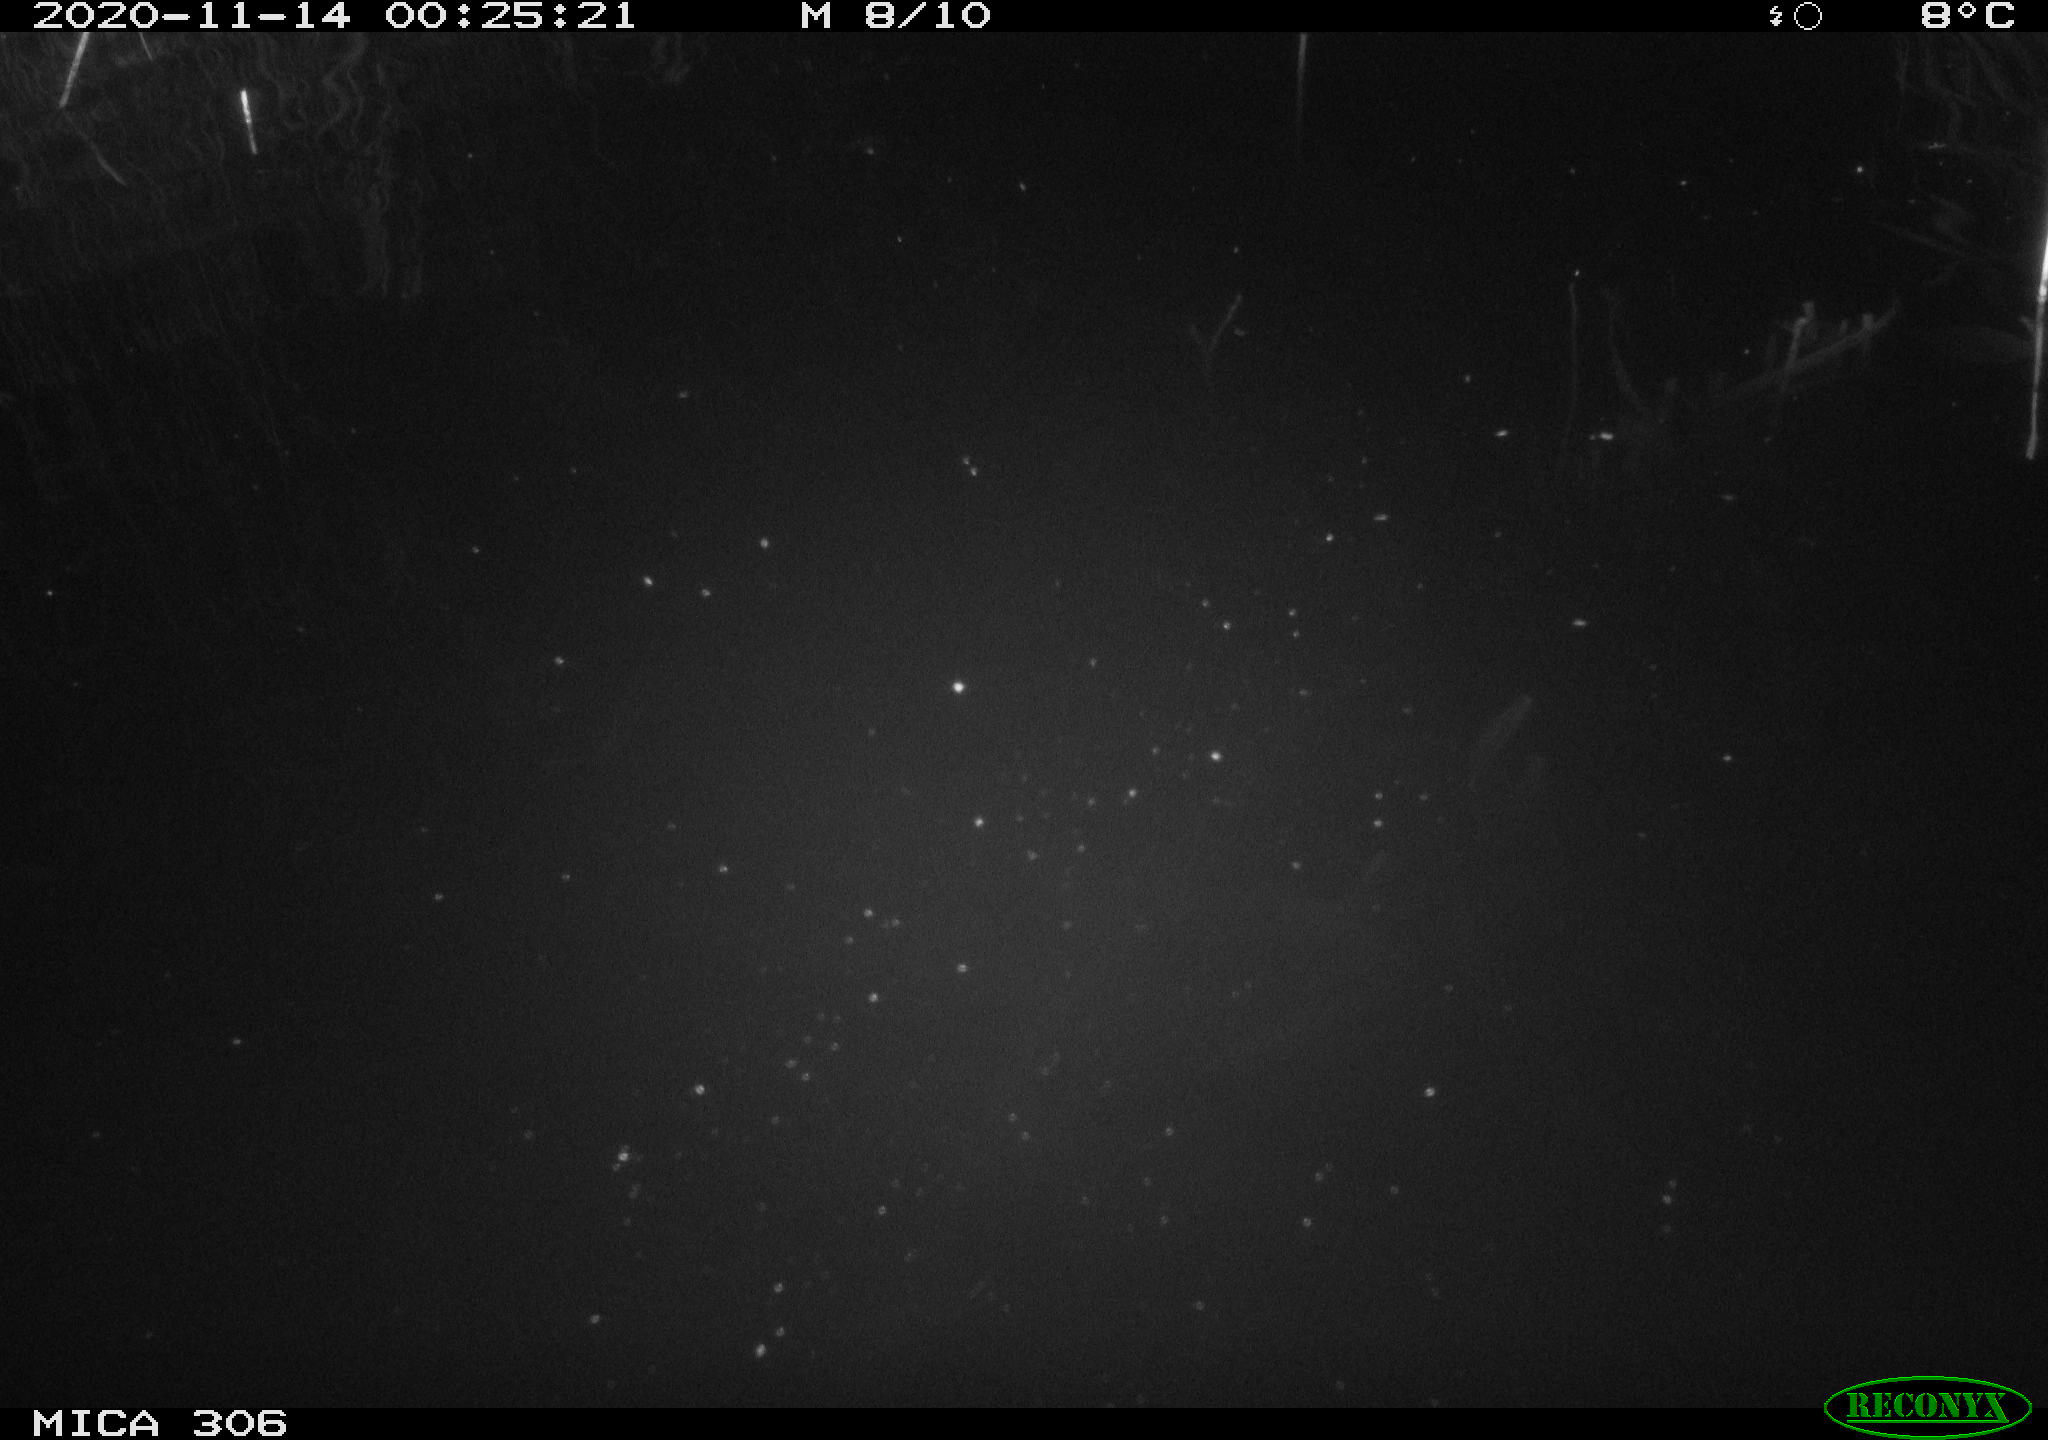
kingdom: Animalia
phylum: Chordata
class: Mammalia
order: Rodentia
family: Cricetidae
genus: Ondatra
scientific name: Ondatra zibethicus
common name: Muskrat
